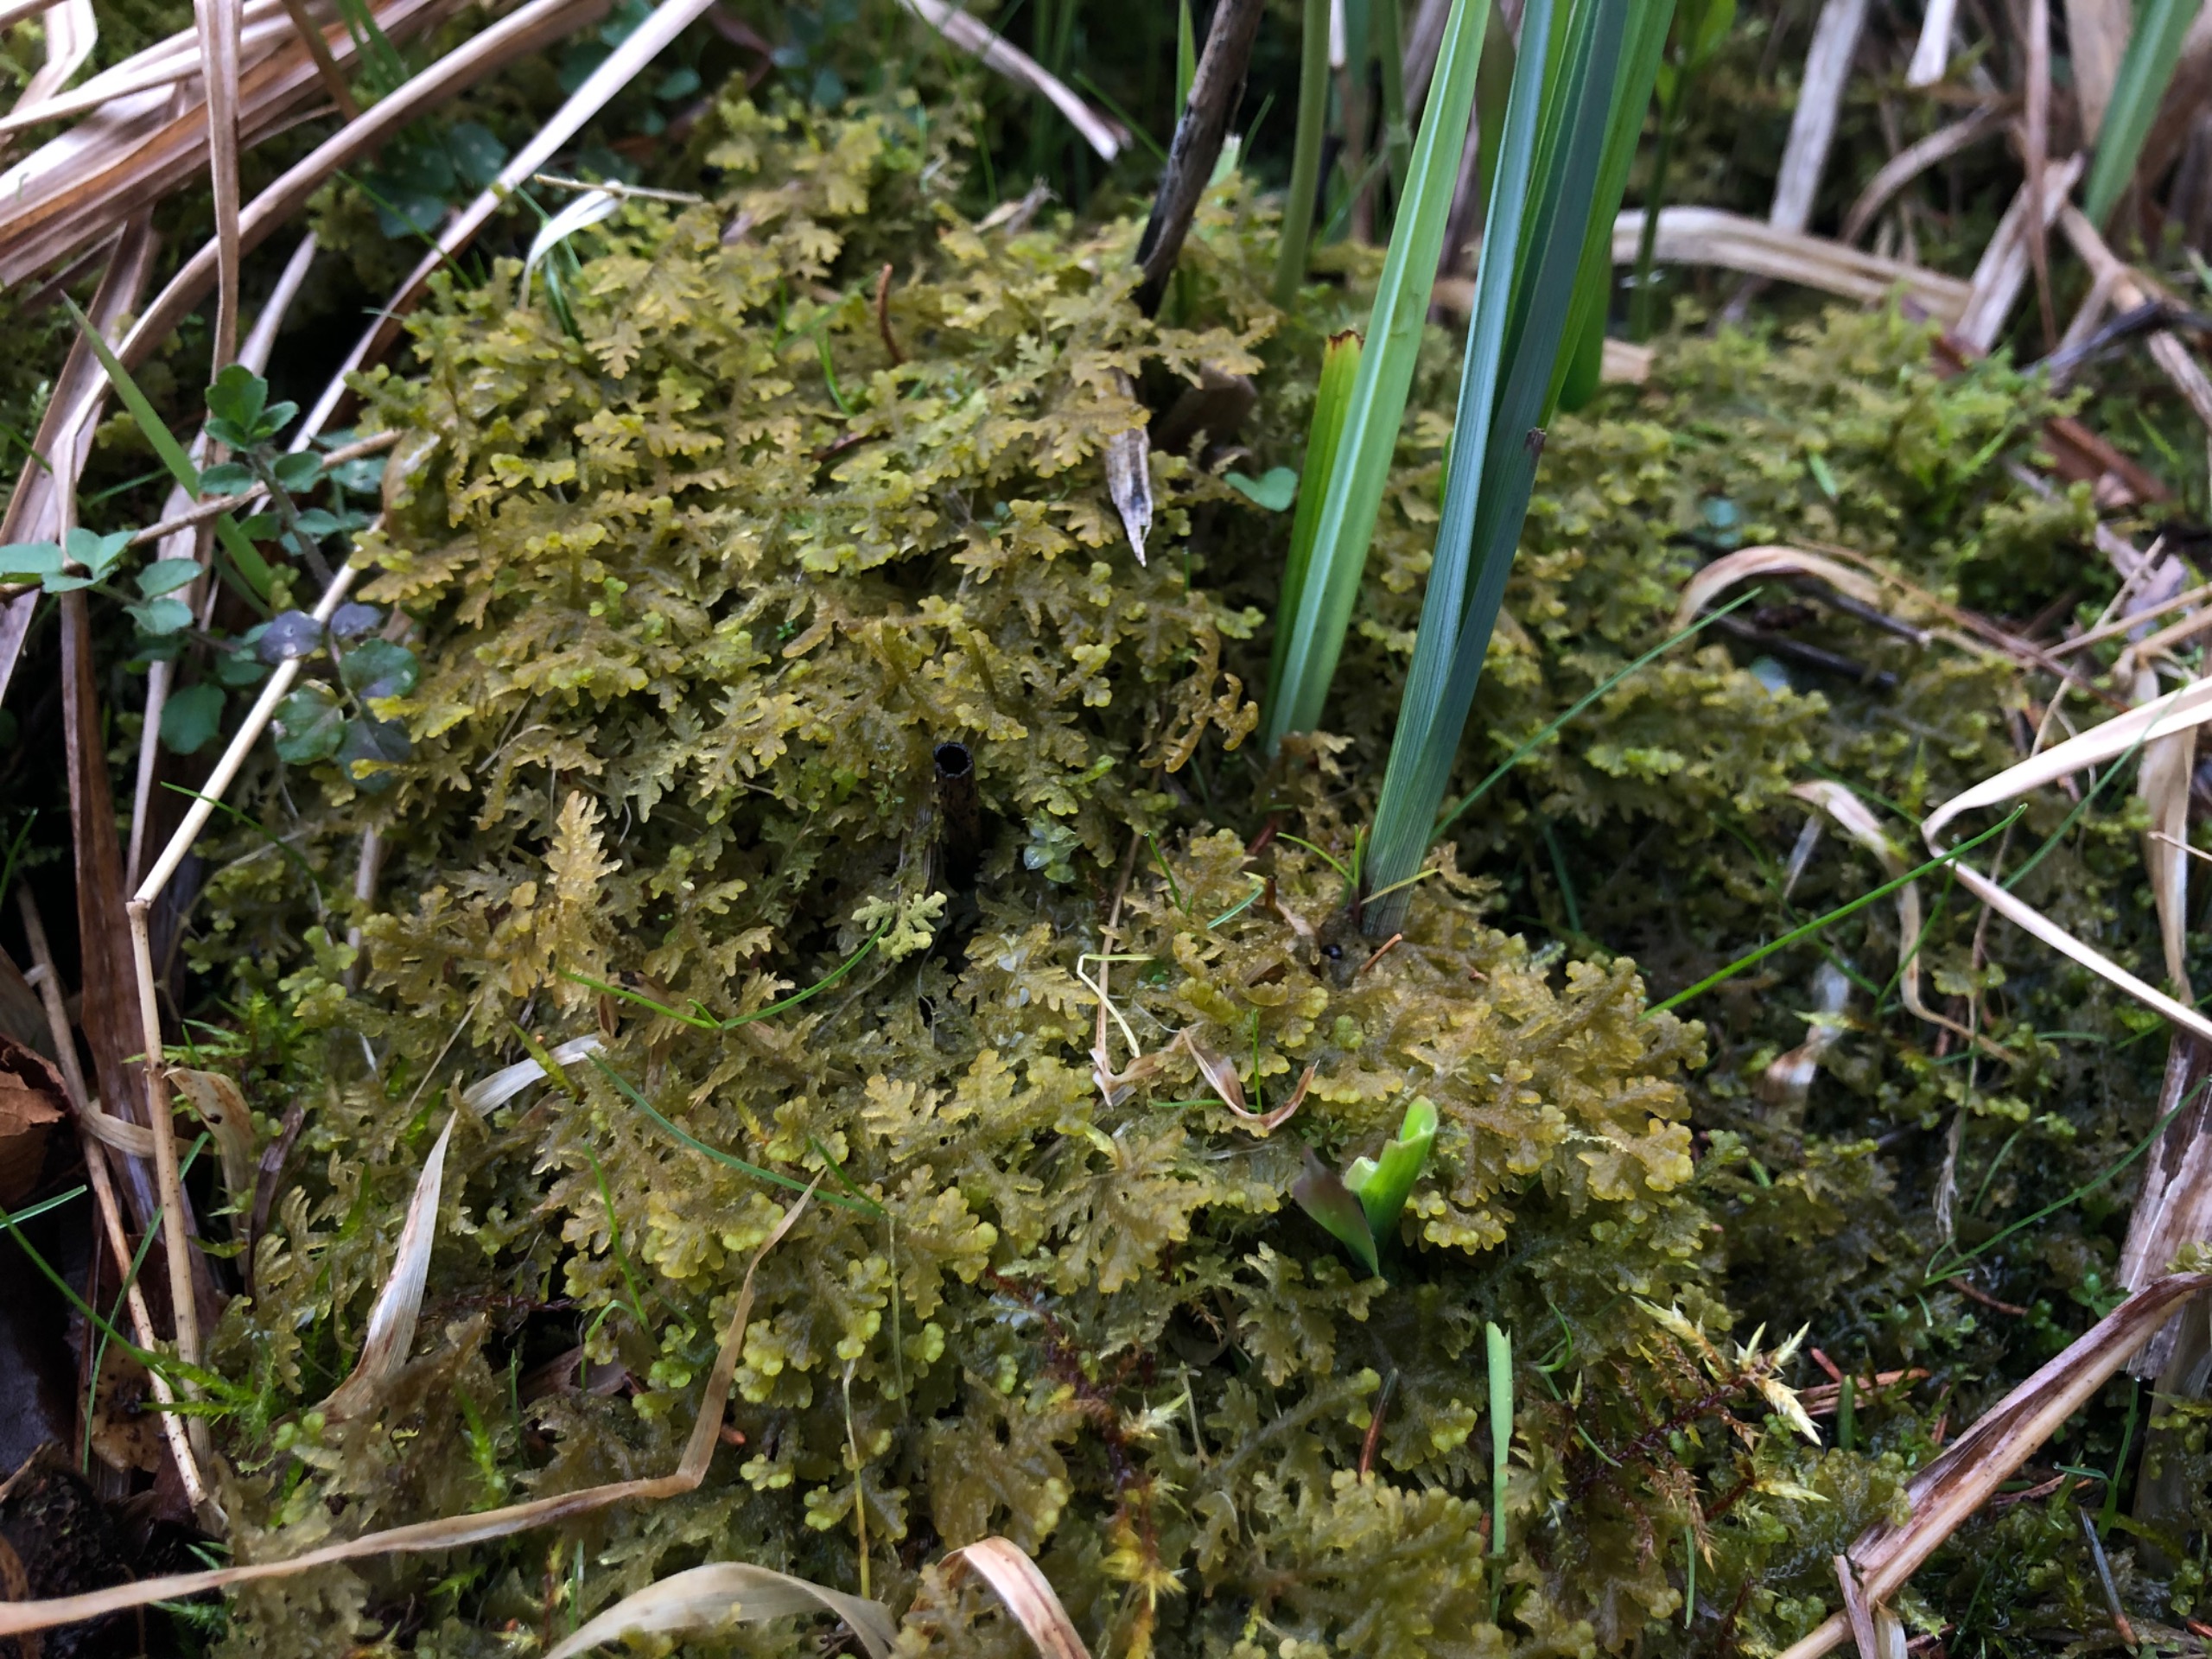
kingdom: Plantae
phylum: Marchantiophyta
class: Jungermanniopsida
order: Jungermanniales
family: Trichocoleaceae
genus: Trichocolea
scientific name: Trichocolea tomentella
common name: Bleg dunmos
